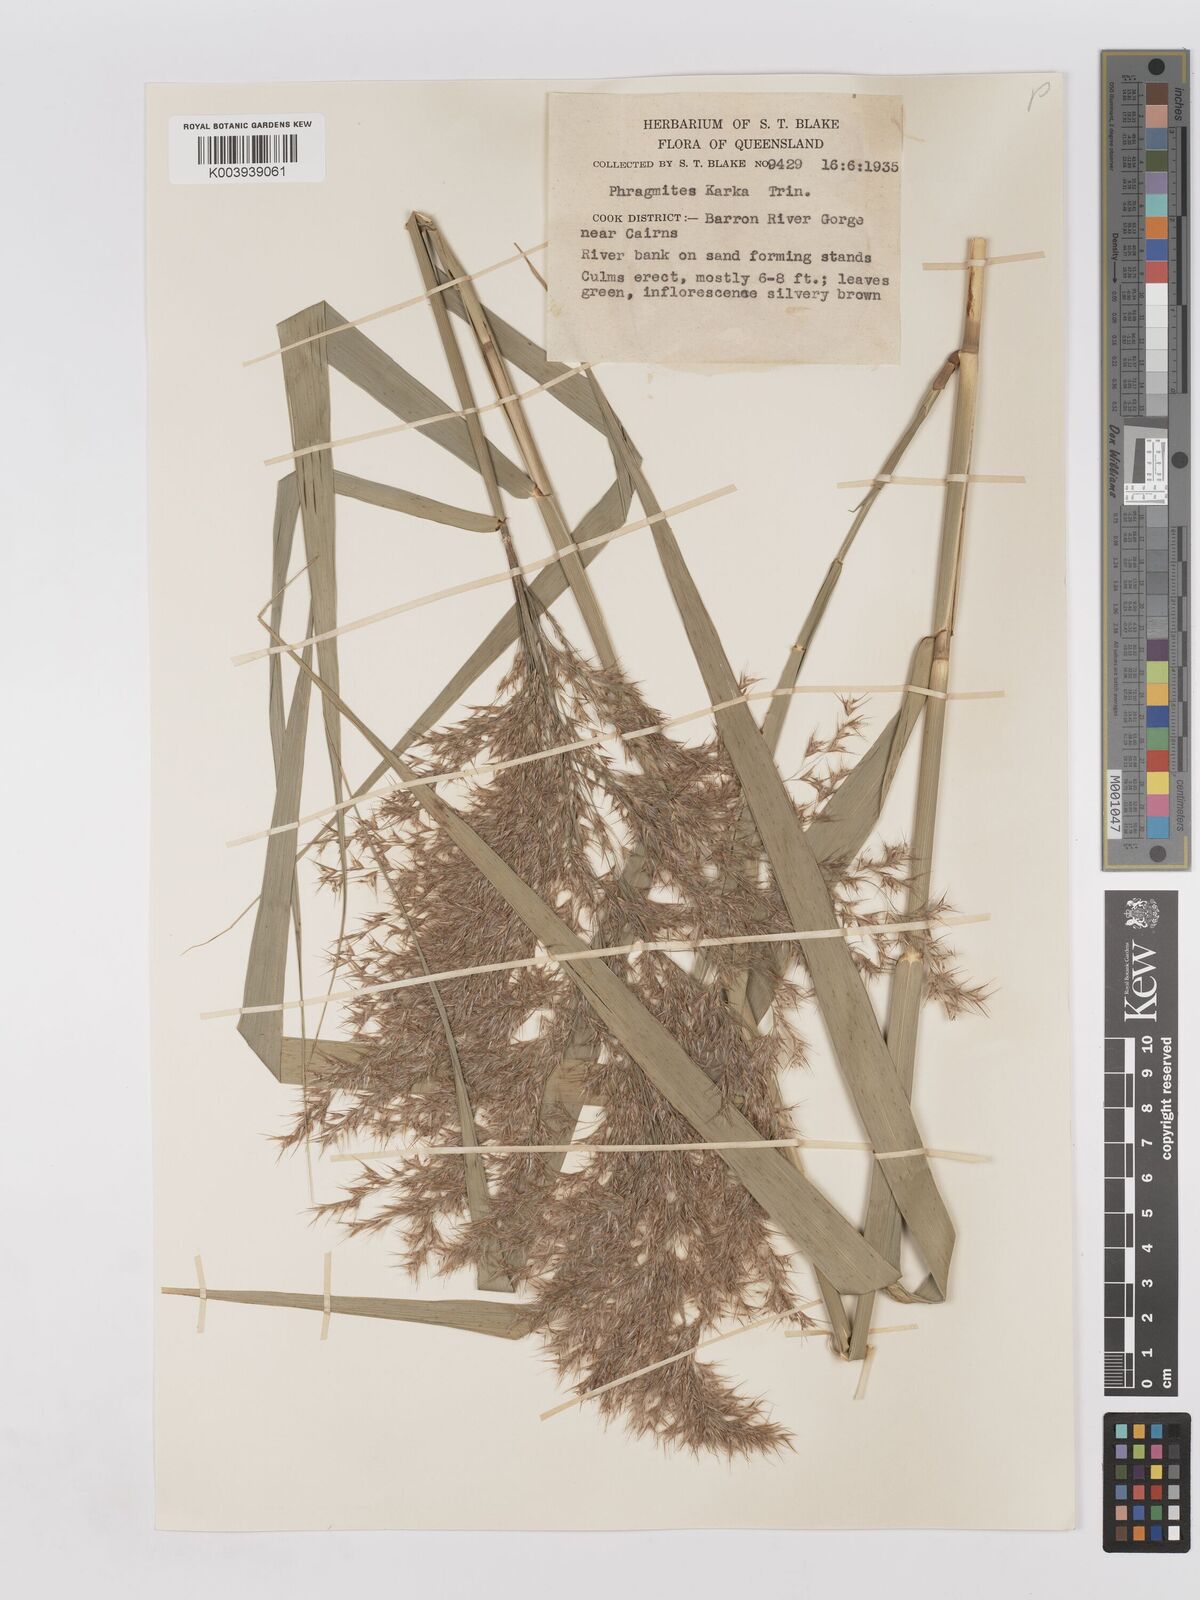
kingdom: Plantae
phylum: Tracheophyta
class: Liliopsida
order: Poales
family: Poaceae
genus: Phragmites
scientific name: Phragmites karka
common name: Tropical reed
